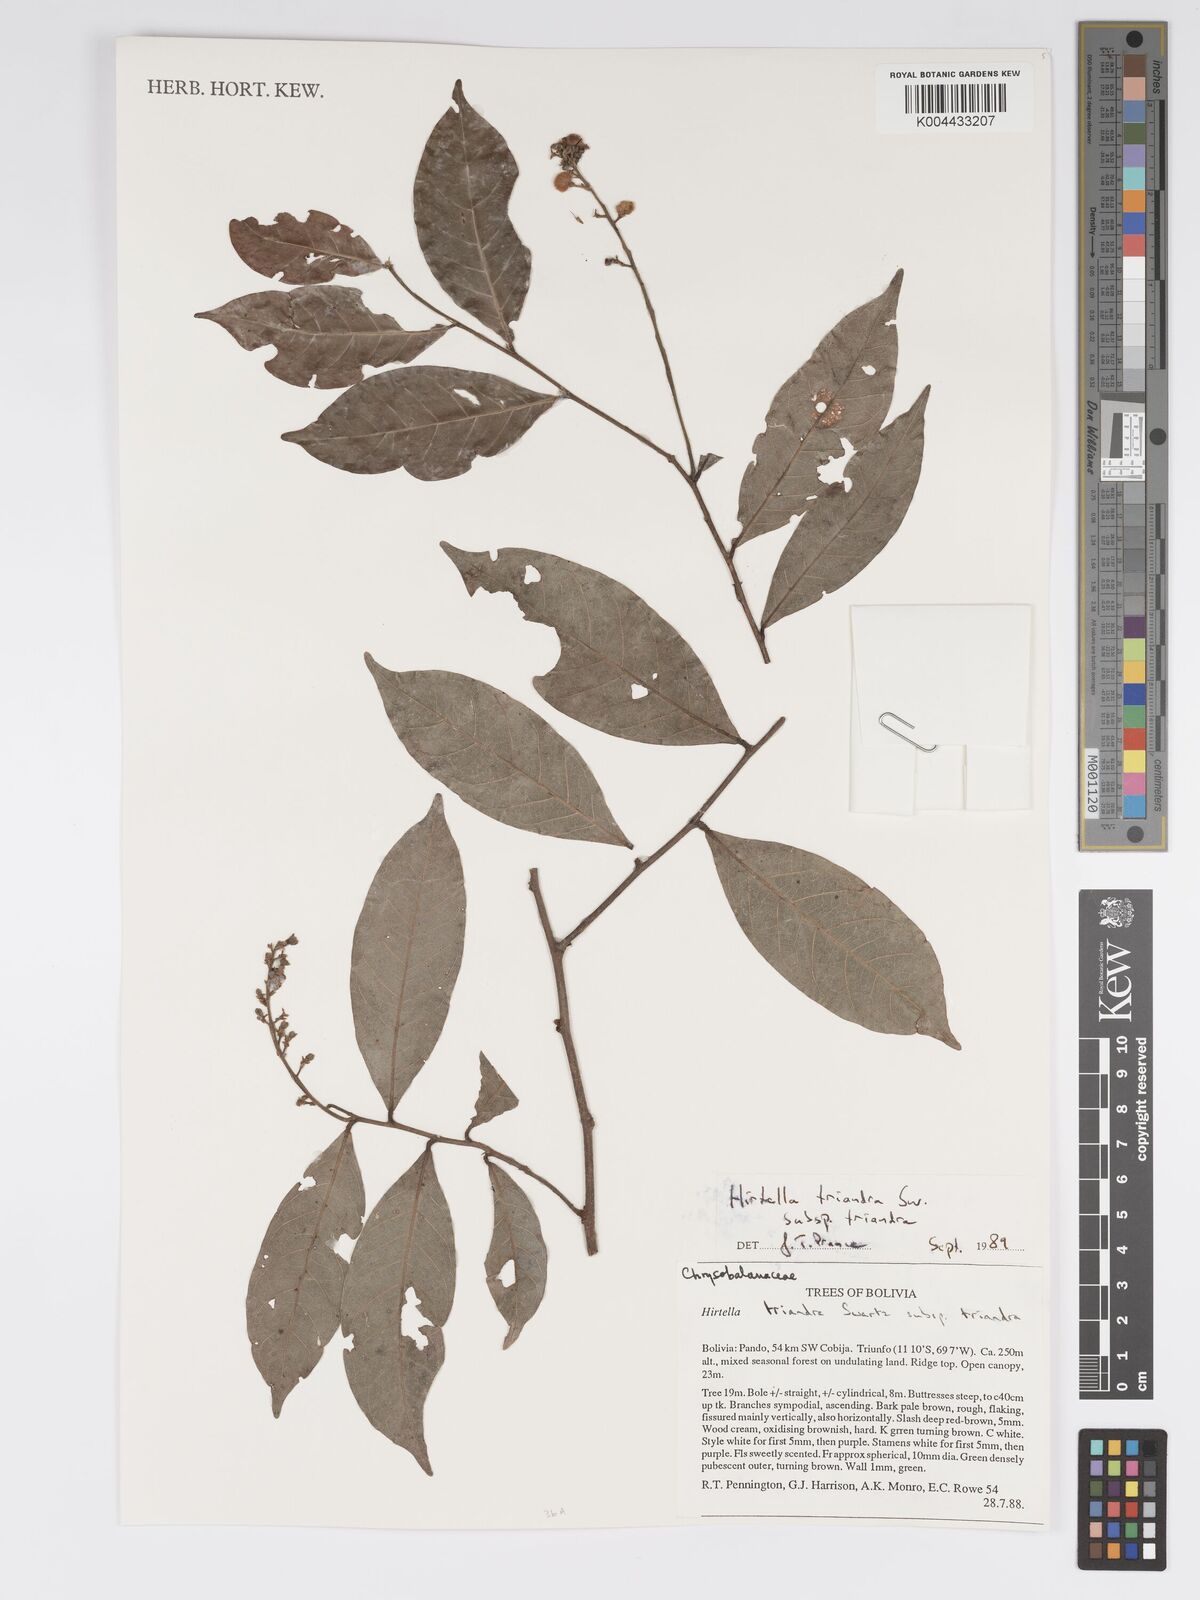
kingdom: Plantae
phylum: Tracheophyta
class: Magnoliopsida
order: Malpighiales
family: Chrysobalanaceae
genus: Hirtella
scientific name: Hirtella triandra
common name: Hairy plum
